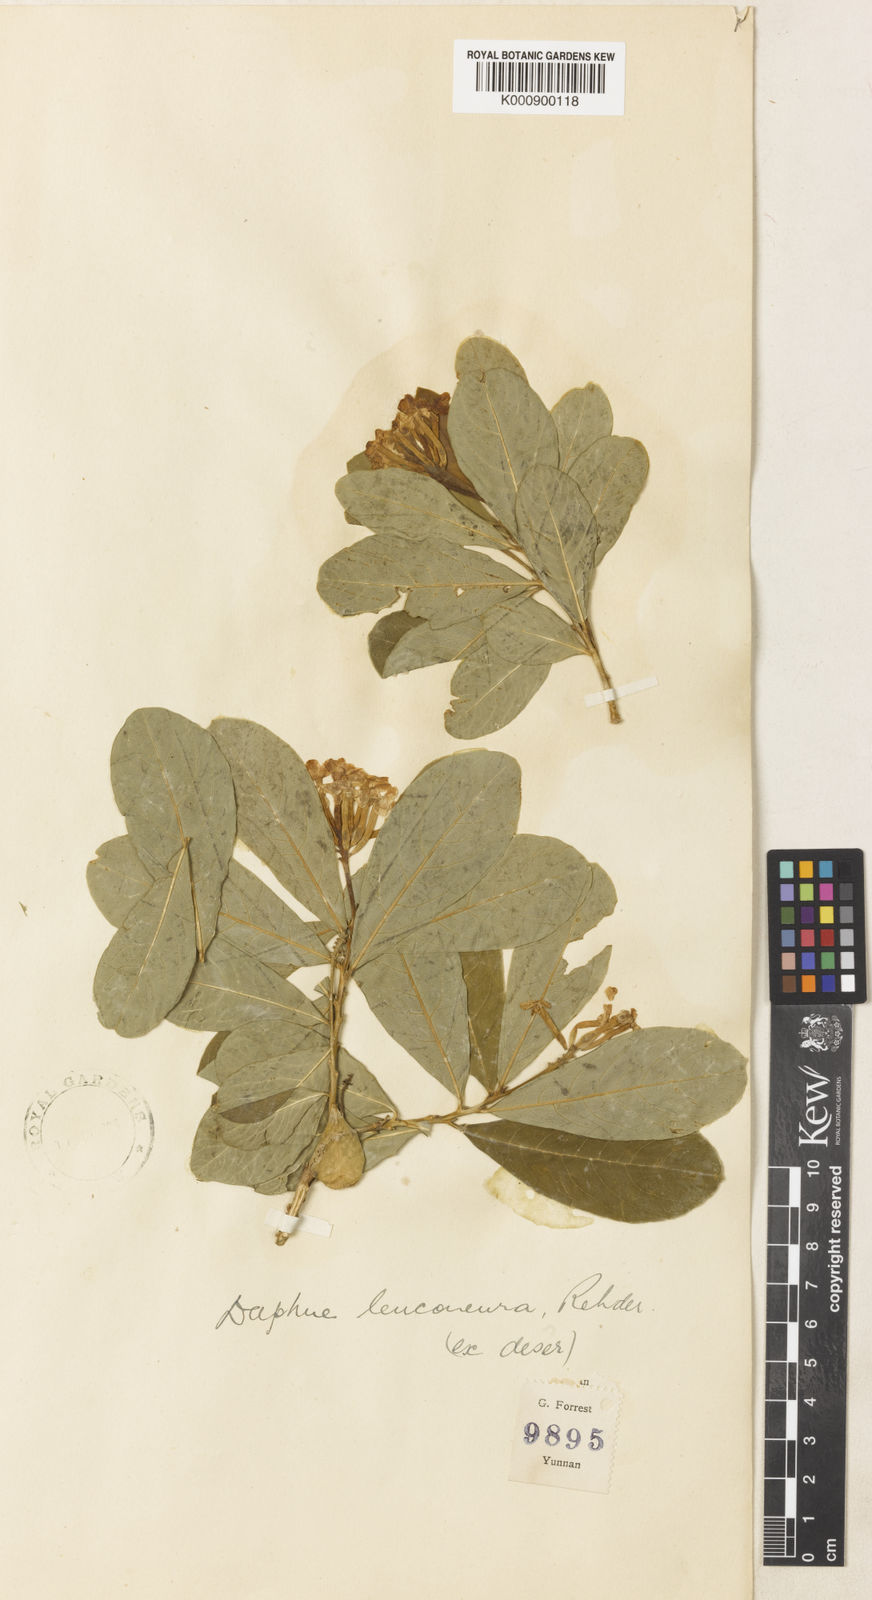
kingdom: Plantae
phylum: Tracheophyta
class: Magnoliopsida
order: Malvales
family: Thymelaeaceae
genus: Wikstroemia
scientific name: Wikstroemia leuconeura
